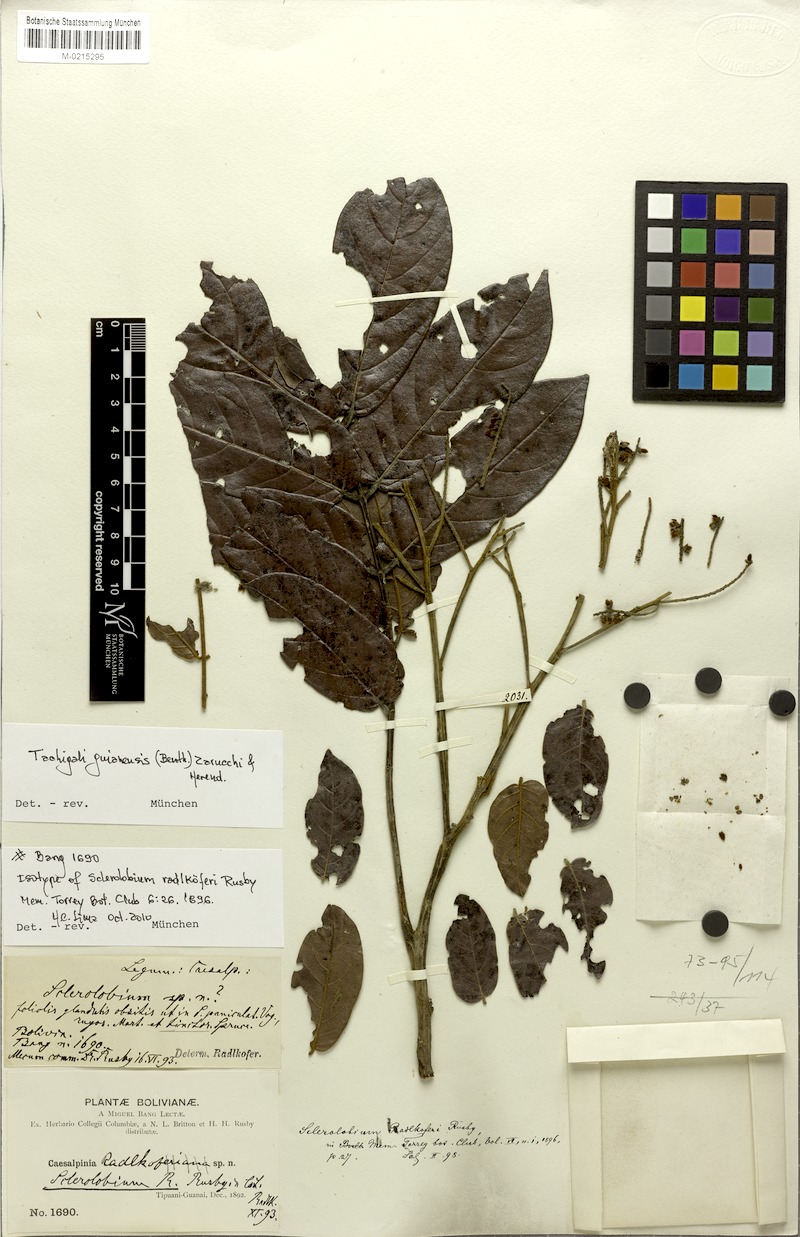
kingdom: Plantae
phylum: Tracheophyta
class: Magnoliopsida
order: Fabales
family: Fabaceae
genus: Tachigali
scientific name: Tachigali guianensis
